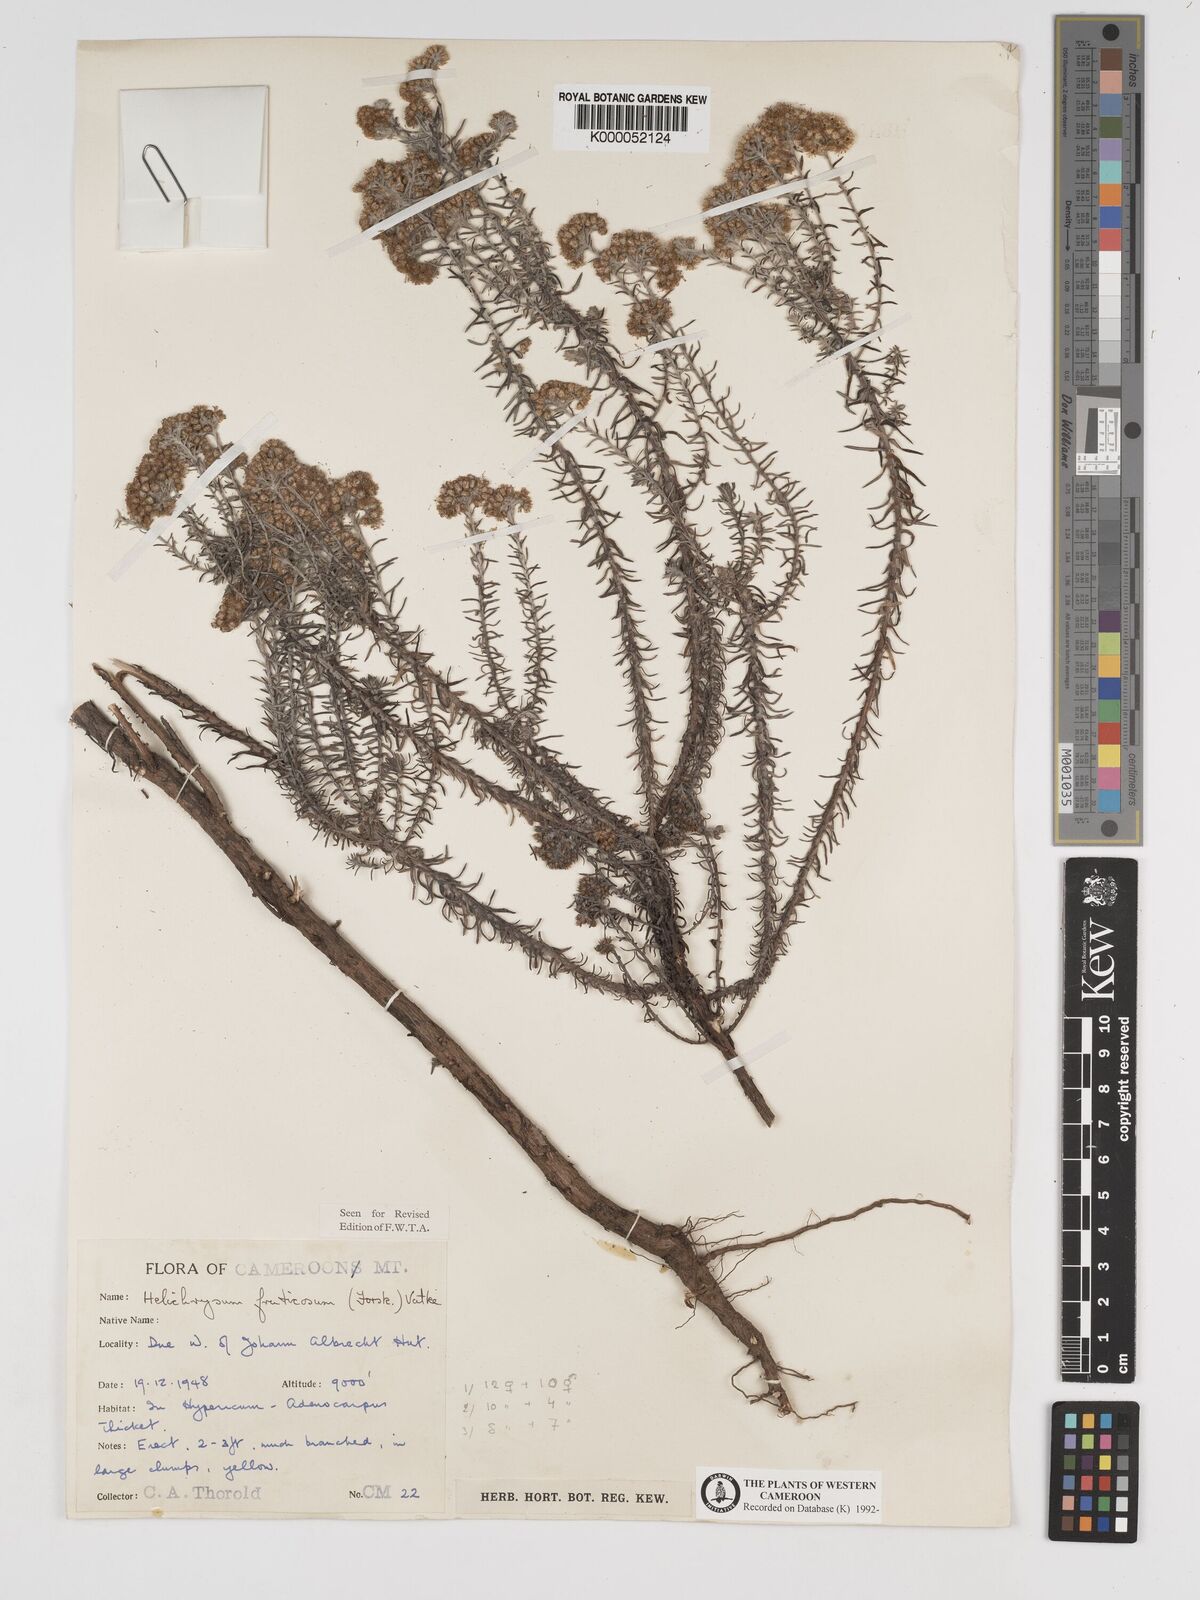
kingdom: Plantae
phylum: Tracheophyta
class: Magnoliopsida
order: Asterales
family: Asteraceae
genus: Helichrysum
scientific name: Helichrysum forskahlii
